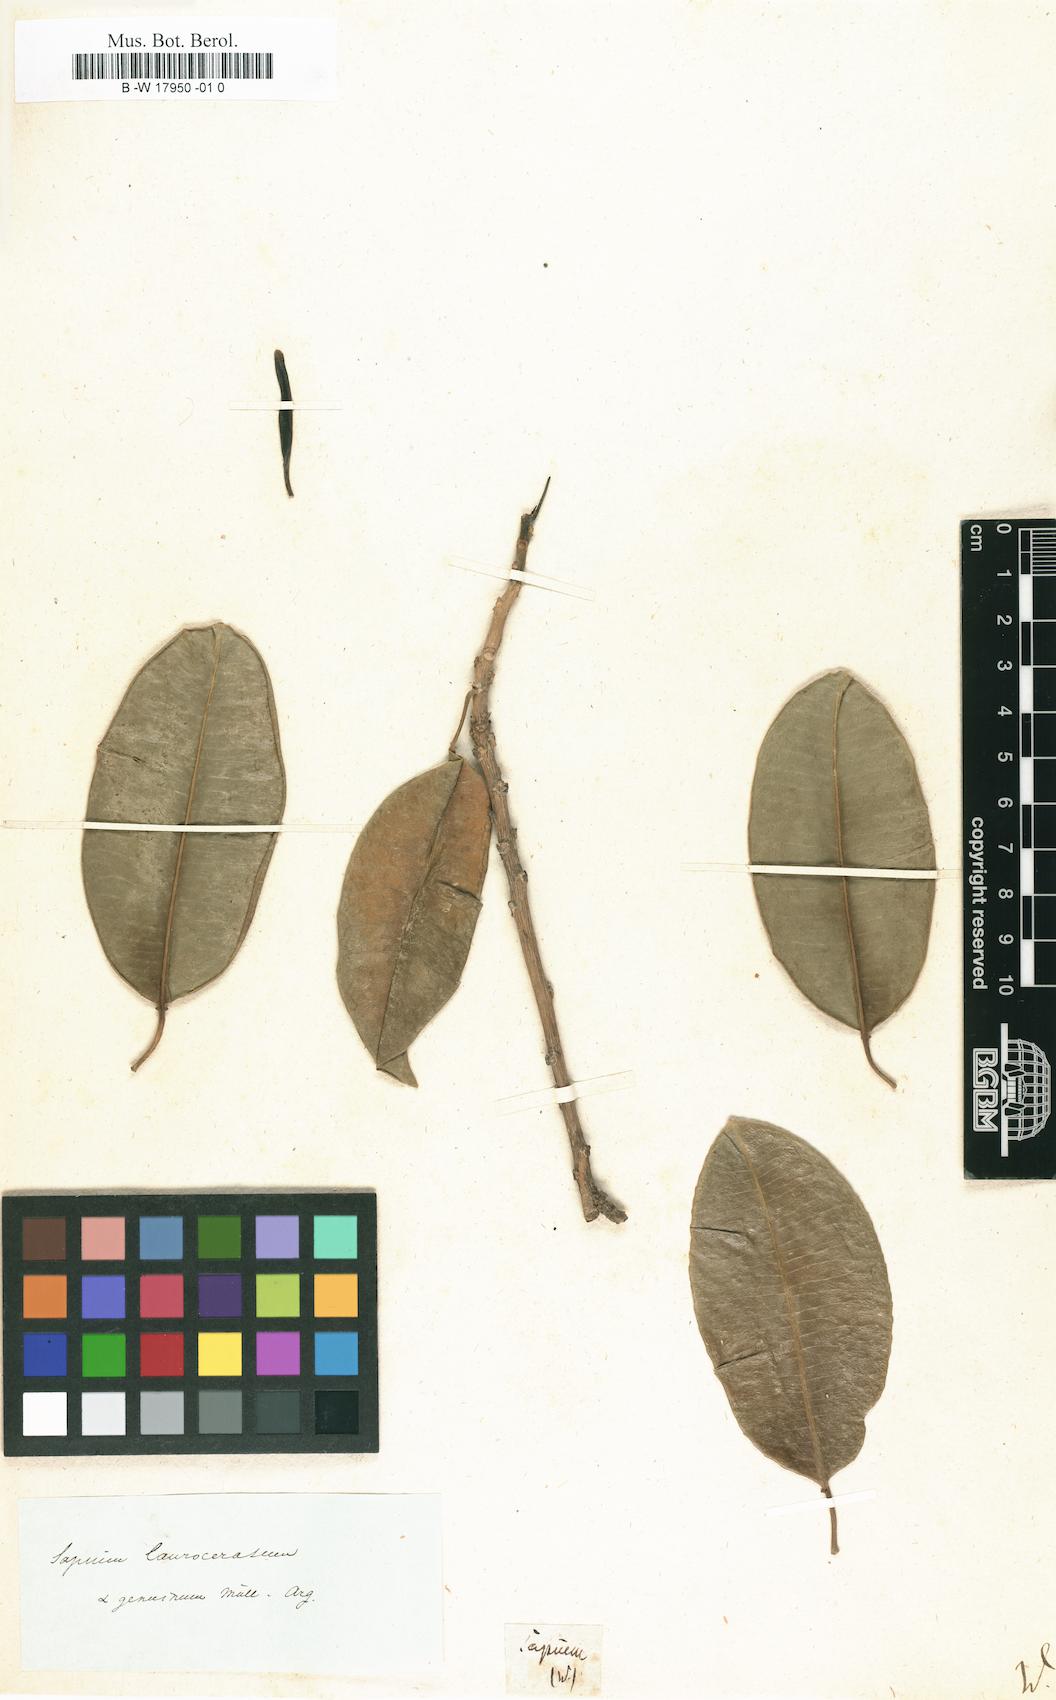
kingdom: Plantae
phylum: Tracheophyta
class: Magnoliopsida
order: Malpighiales
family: Euphorbiaceae
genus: Sapium
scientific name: Sapium
